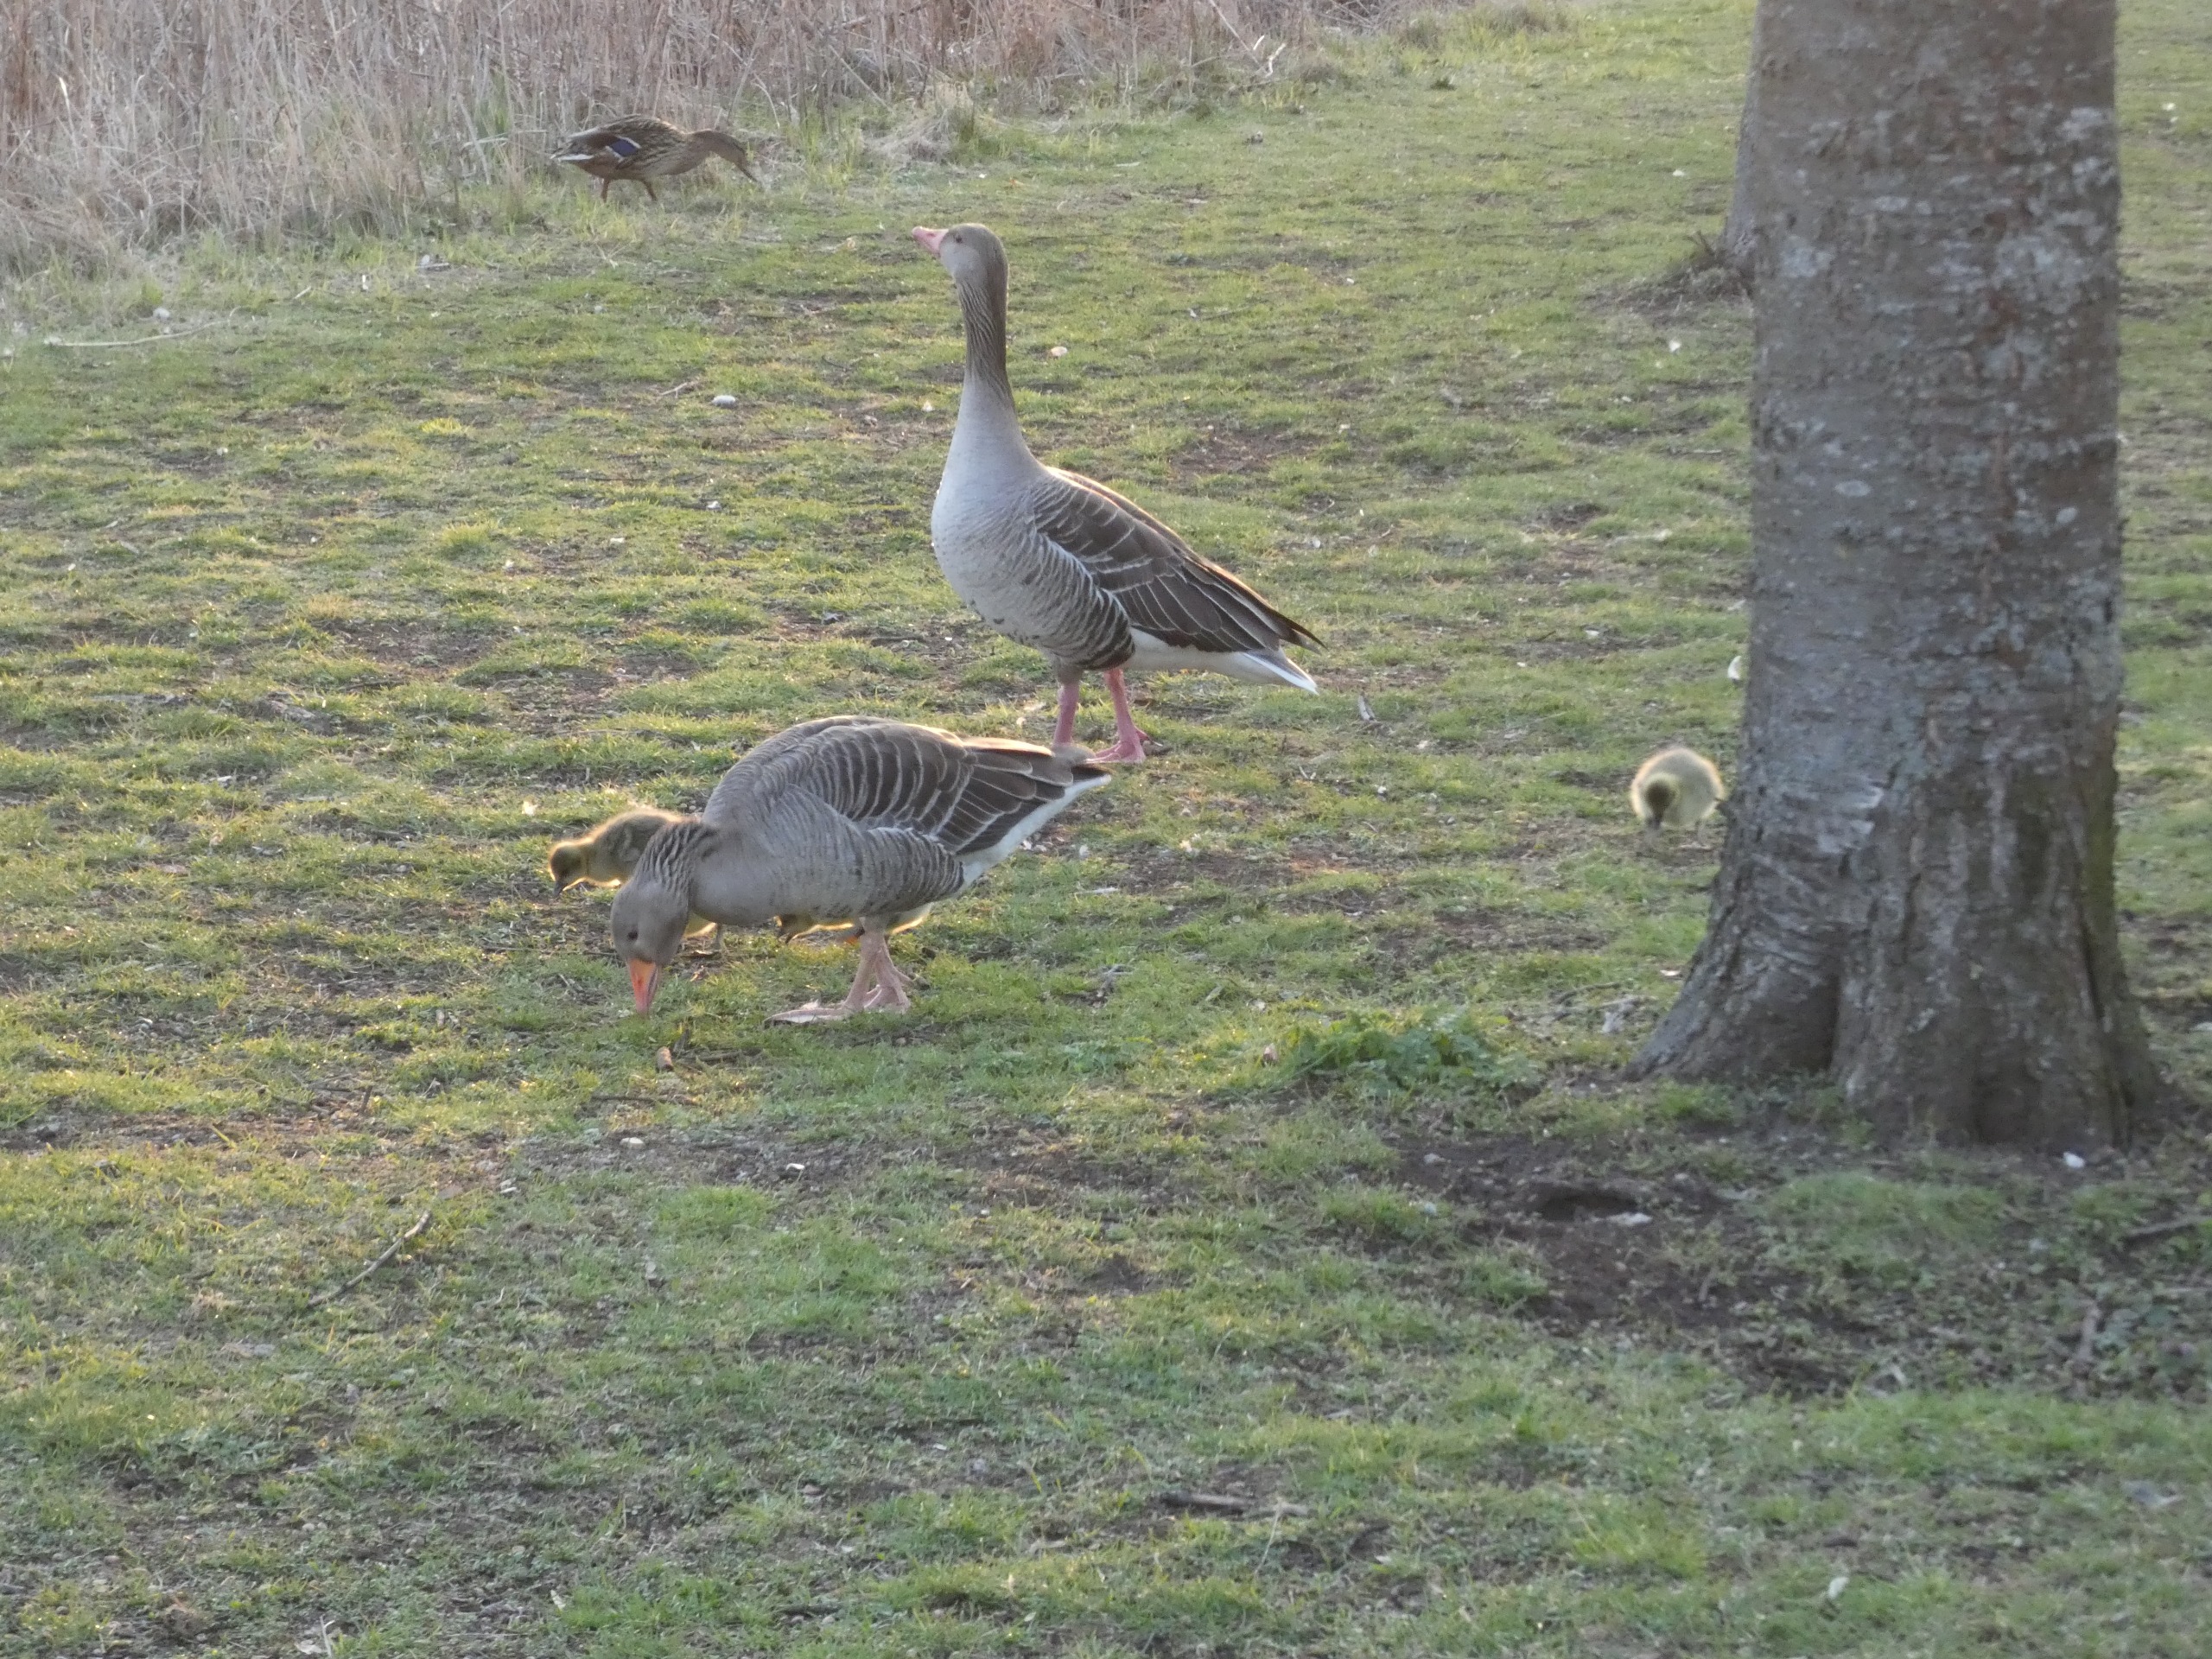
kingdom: Animalia
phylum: Chordata
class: Aves
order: Anseriformes
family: Anatidae
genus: Anser
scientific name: Anser anser
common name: Grågås
